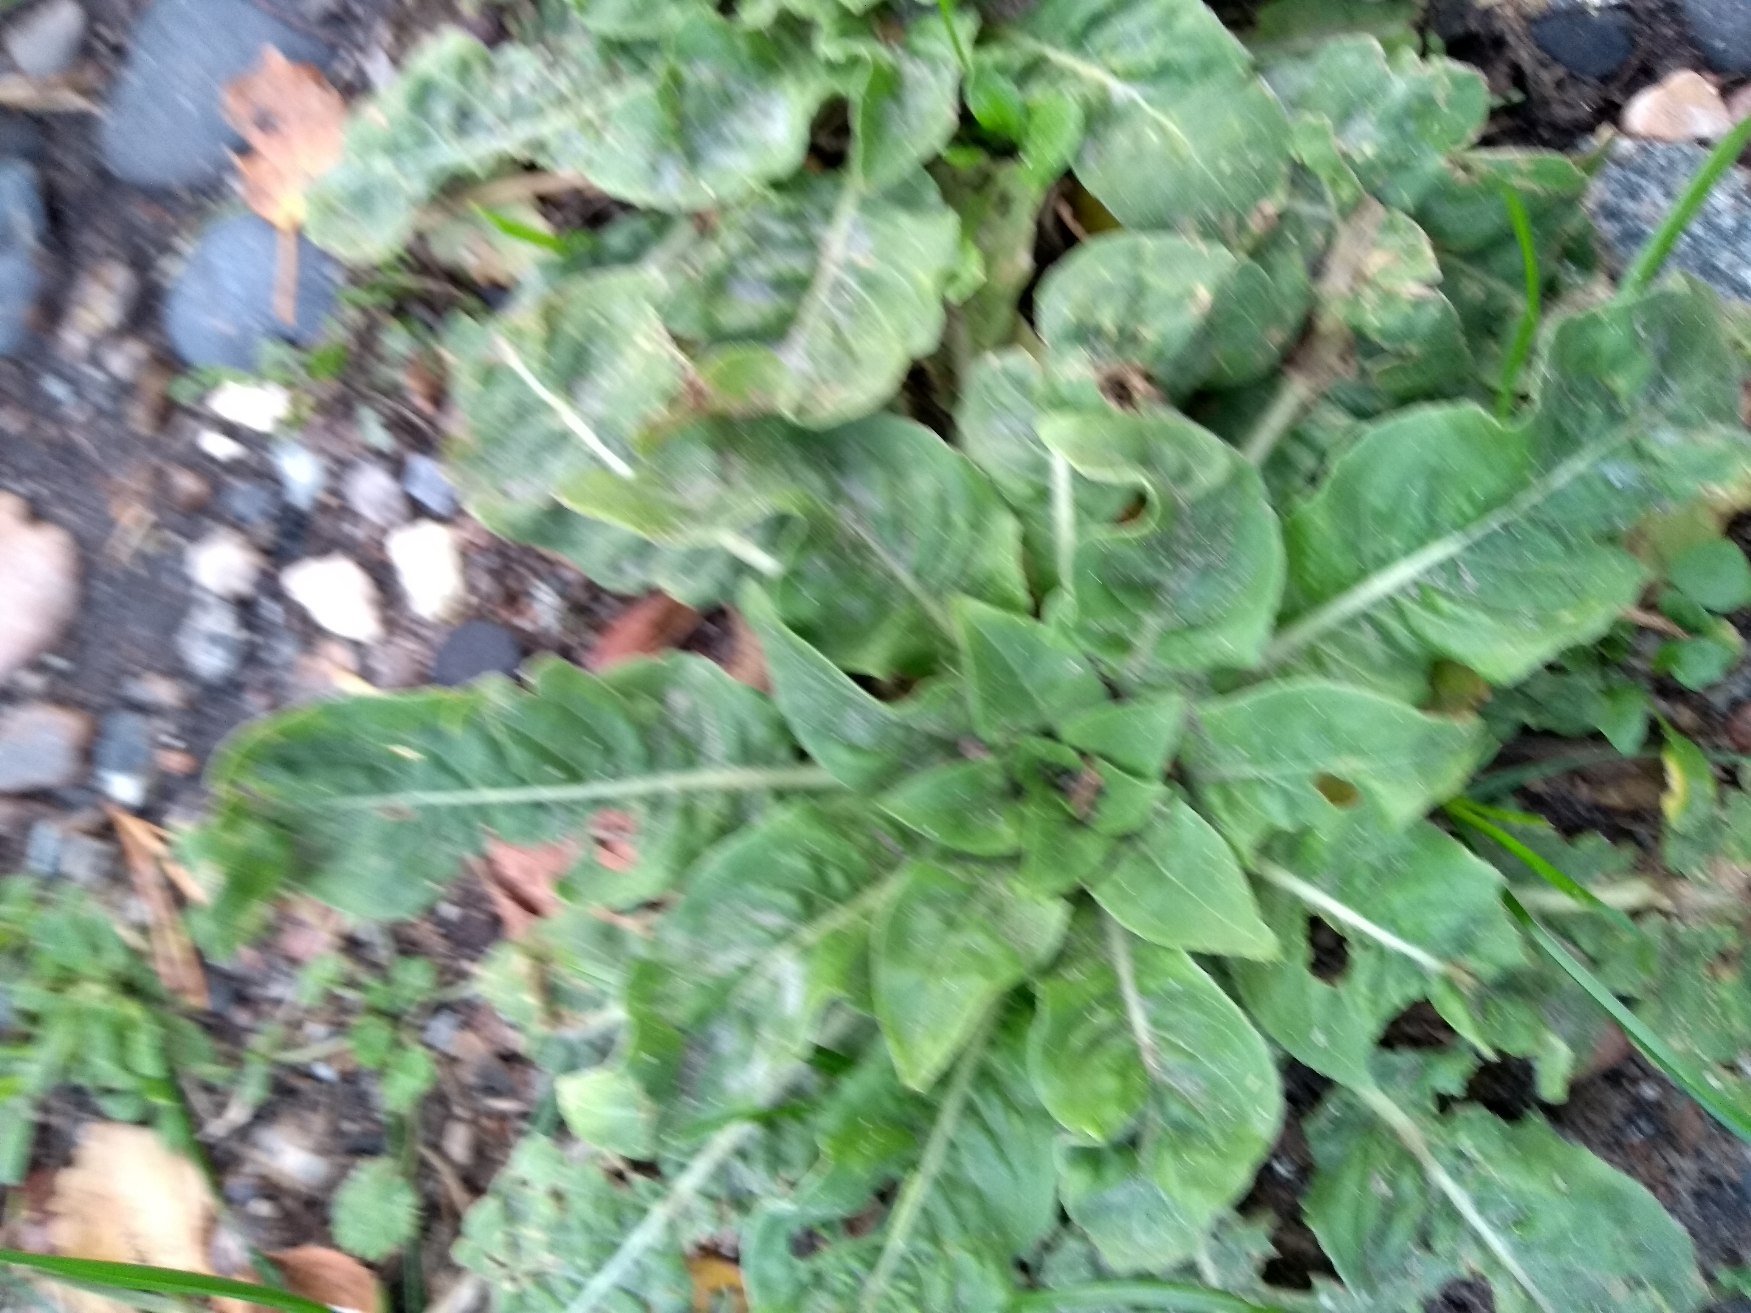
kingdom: Plantae
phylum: Tracheophyta
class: Magnoliopsida
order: Myrtales
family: Onagraceae
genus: Oenothera
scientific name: Oenothera
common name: Natlysslægten
